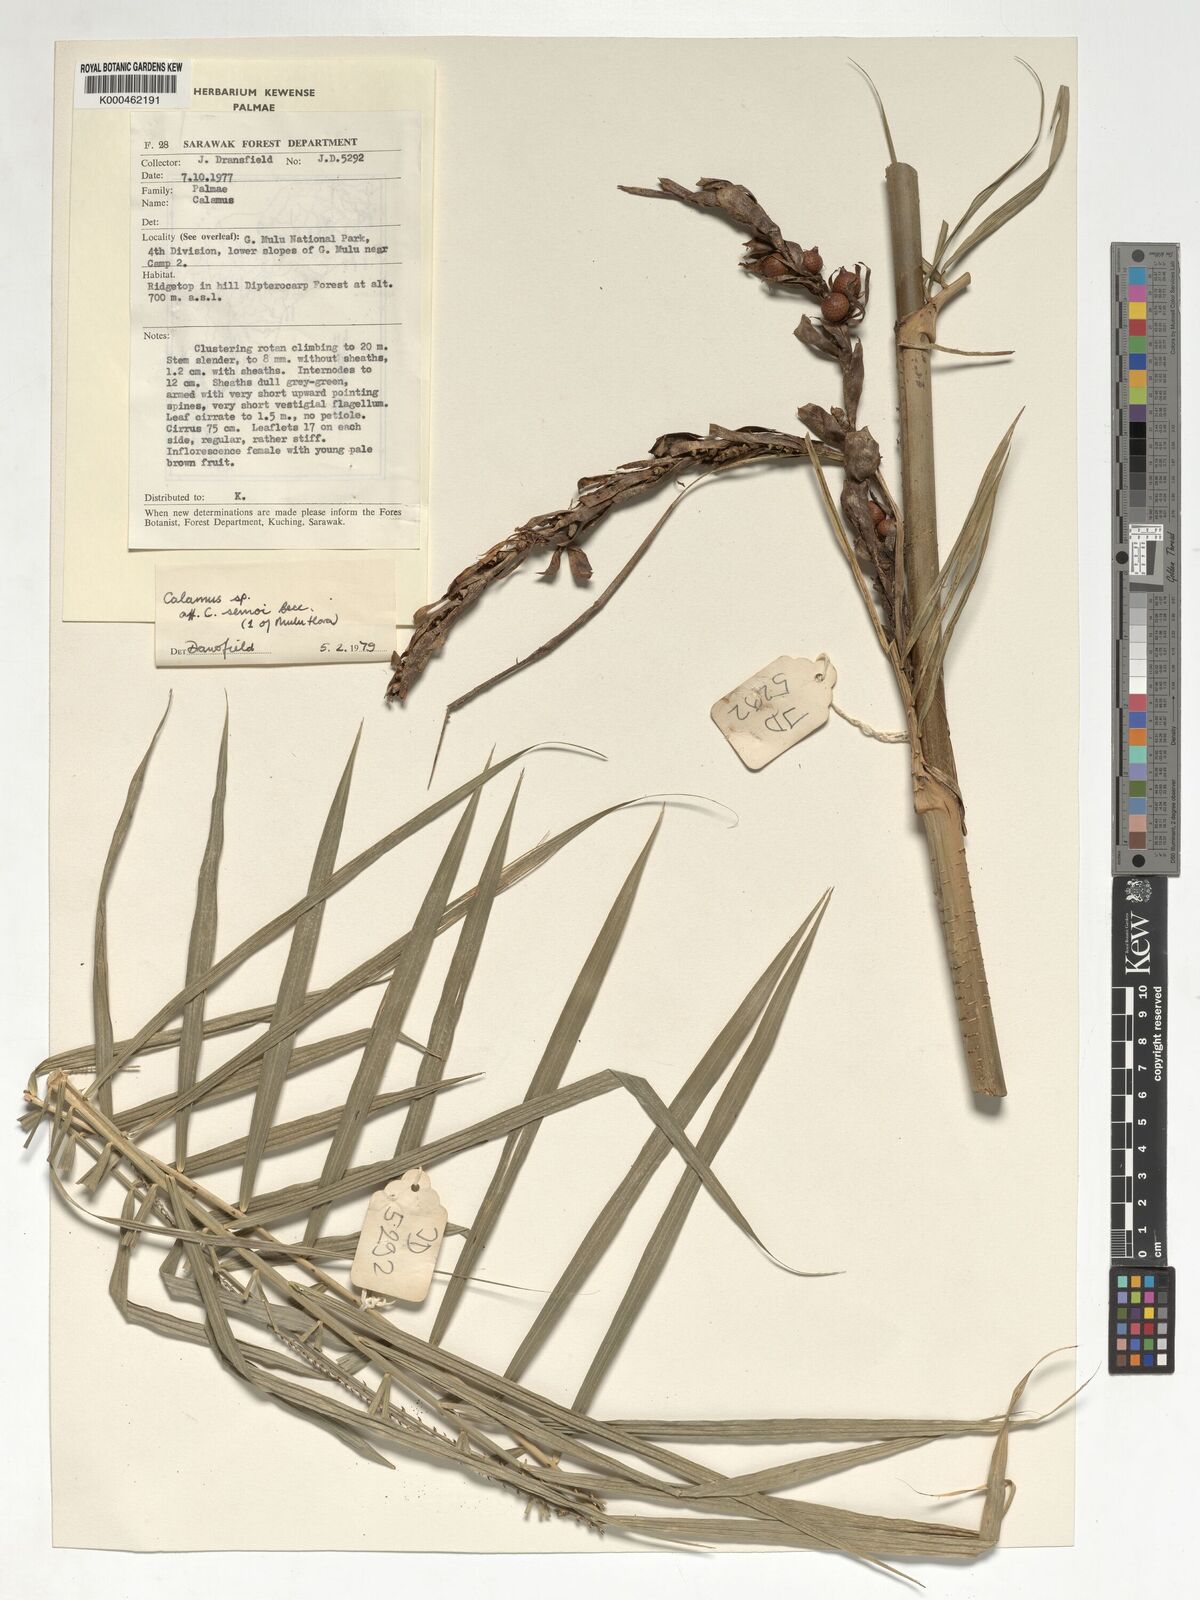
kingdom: Plantae
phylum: Tracheophyta
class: Liliopsida
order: Arecales
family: Arecaceae
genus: Calamus
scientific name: Calamus erioacanthus
